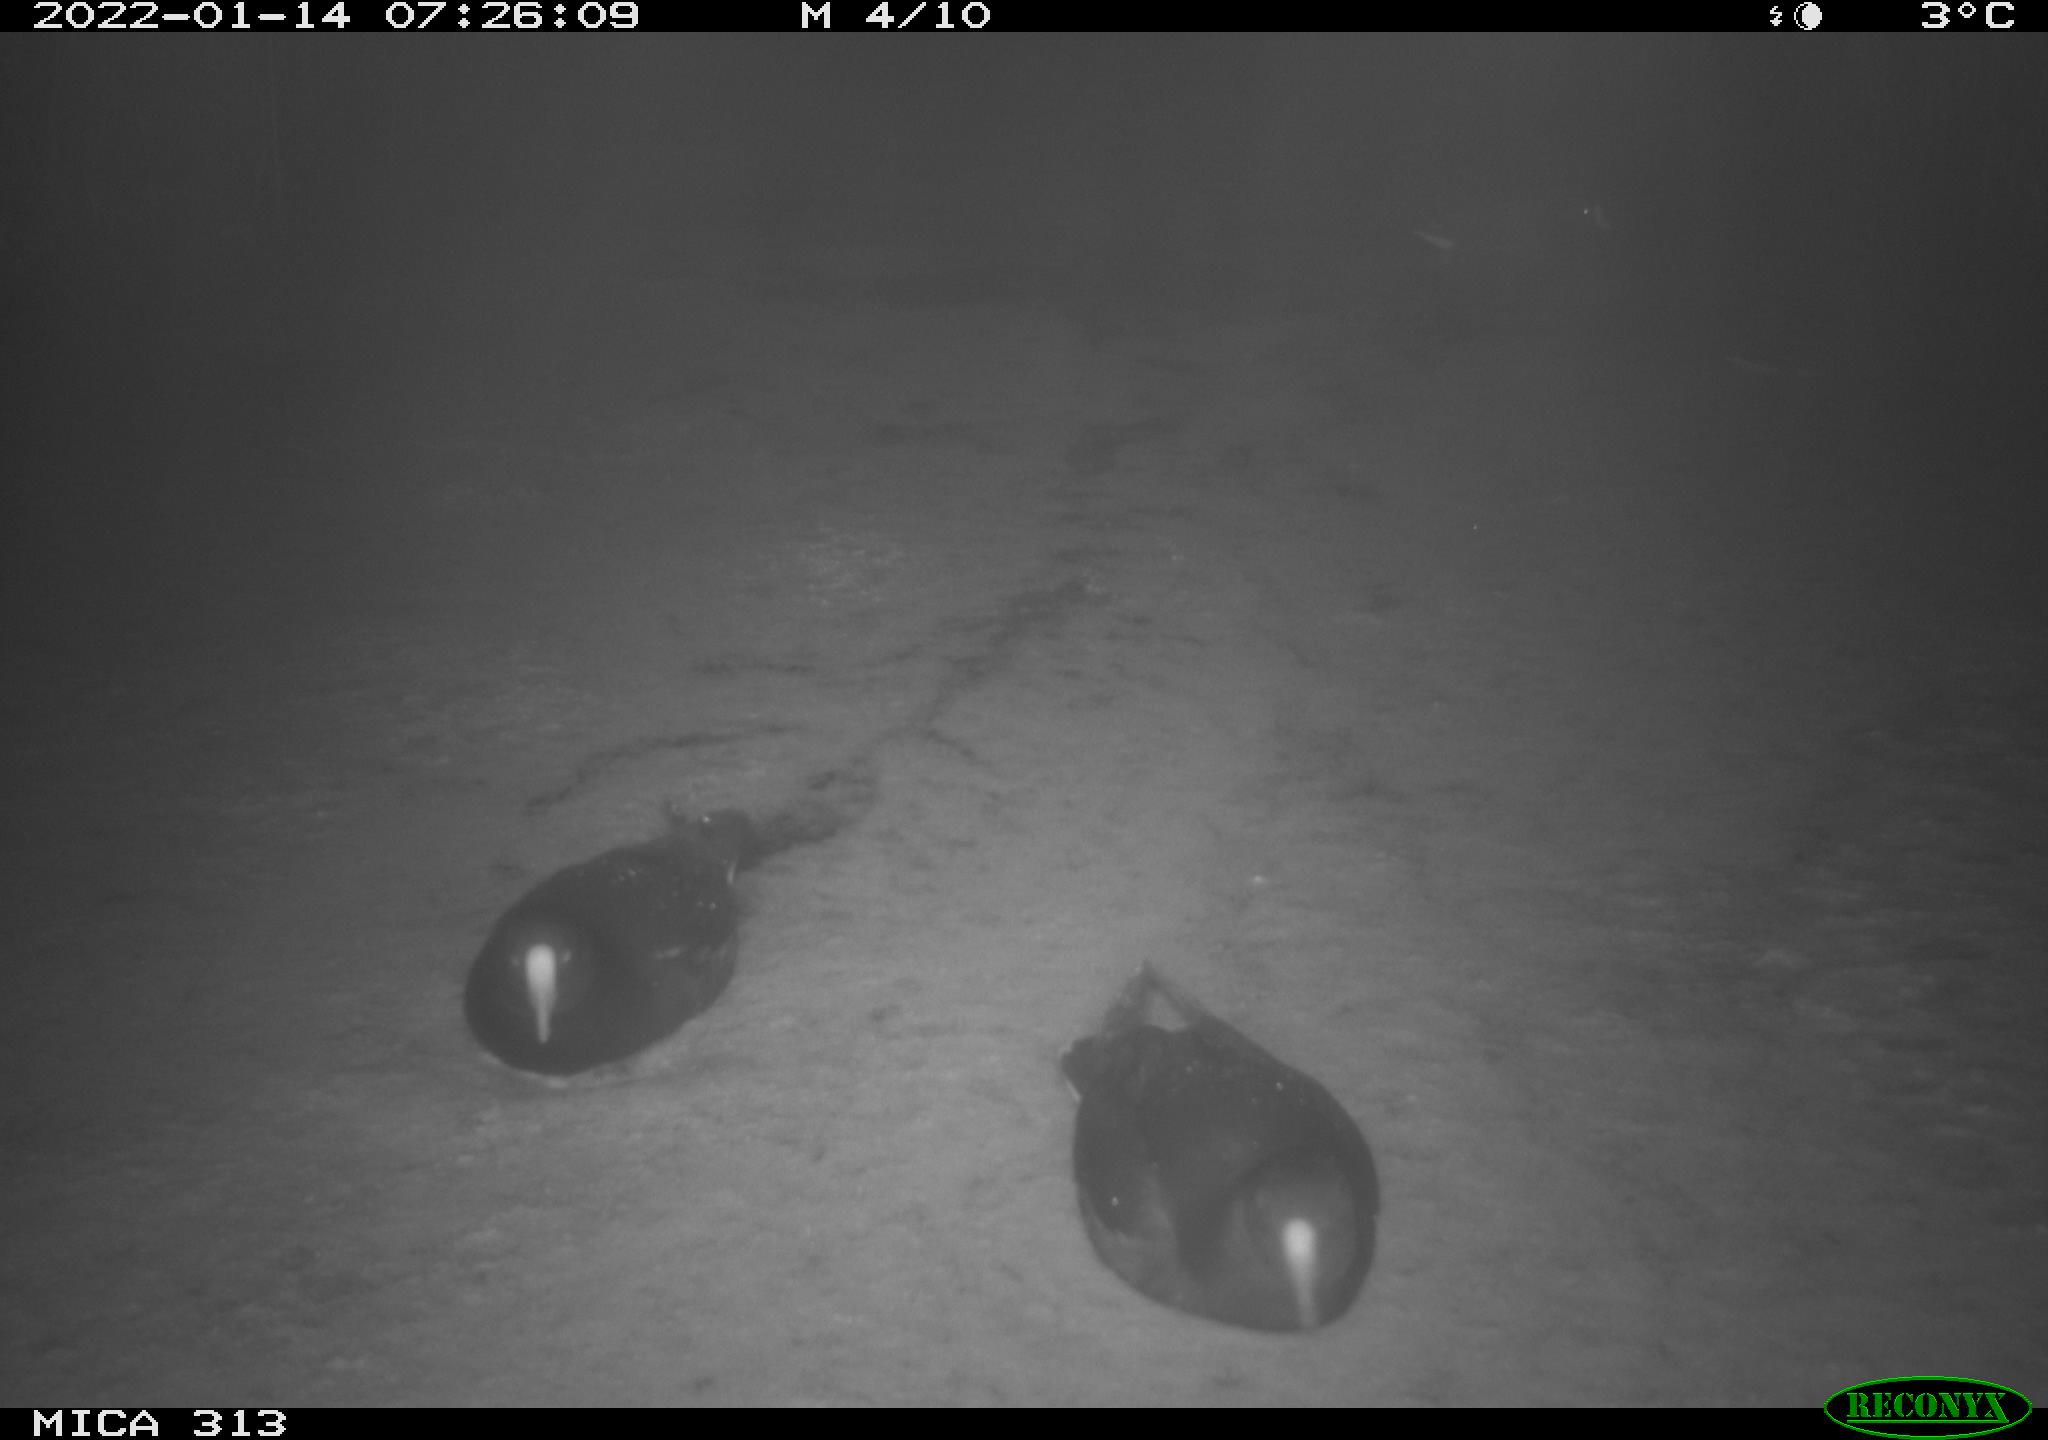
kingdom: Animalia
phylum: Chordata
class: Aves
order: Gruiformes
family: Rallidae
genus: Gallinula
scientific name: Gallinula chloropus
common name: Common moorhen
